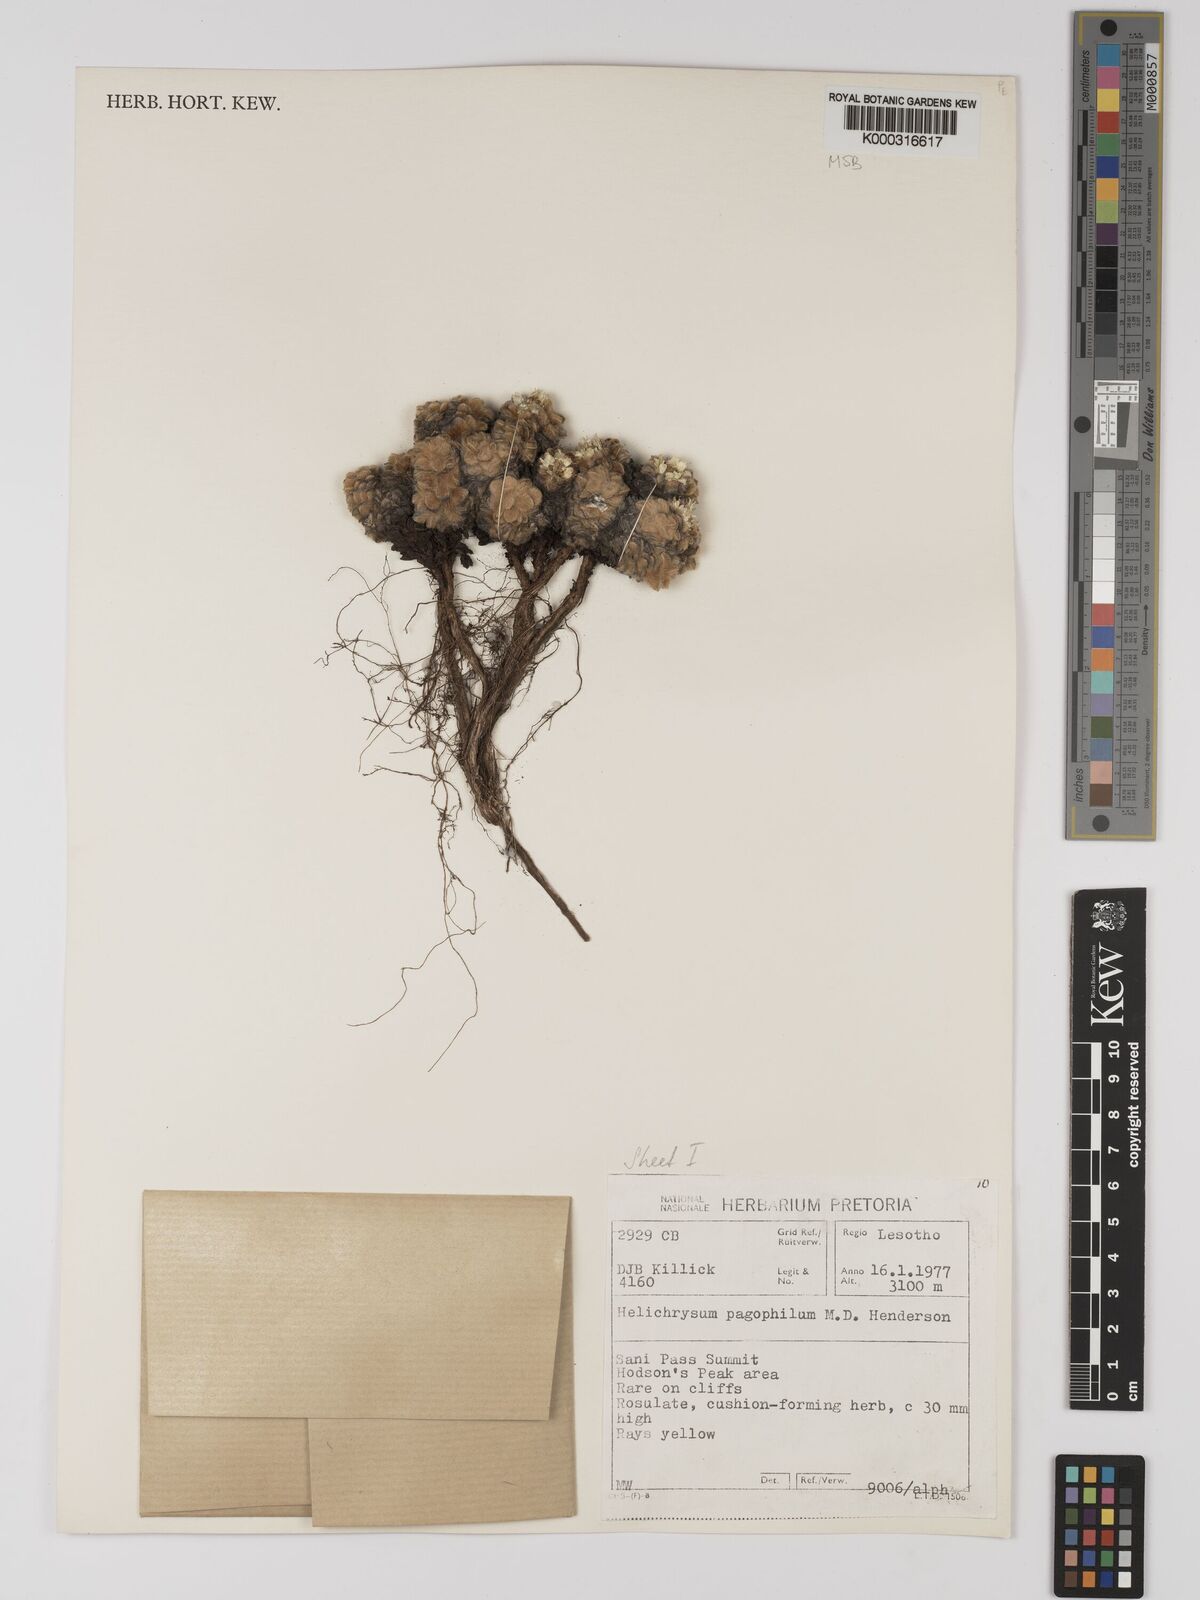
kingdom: Plantae
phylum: Tracheophyta
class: Magnoliopsida
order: Asterales
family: Asteraceae
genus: Helichrysum
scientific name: Helichrysum pagophilum
